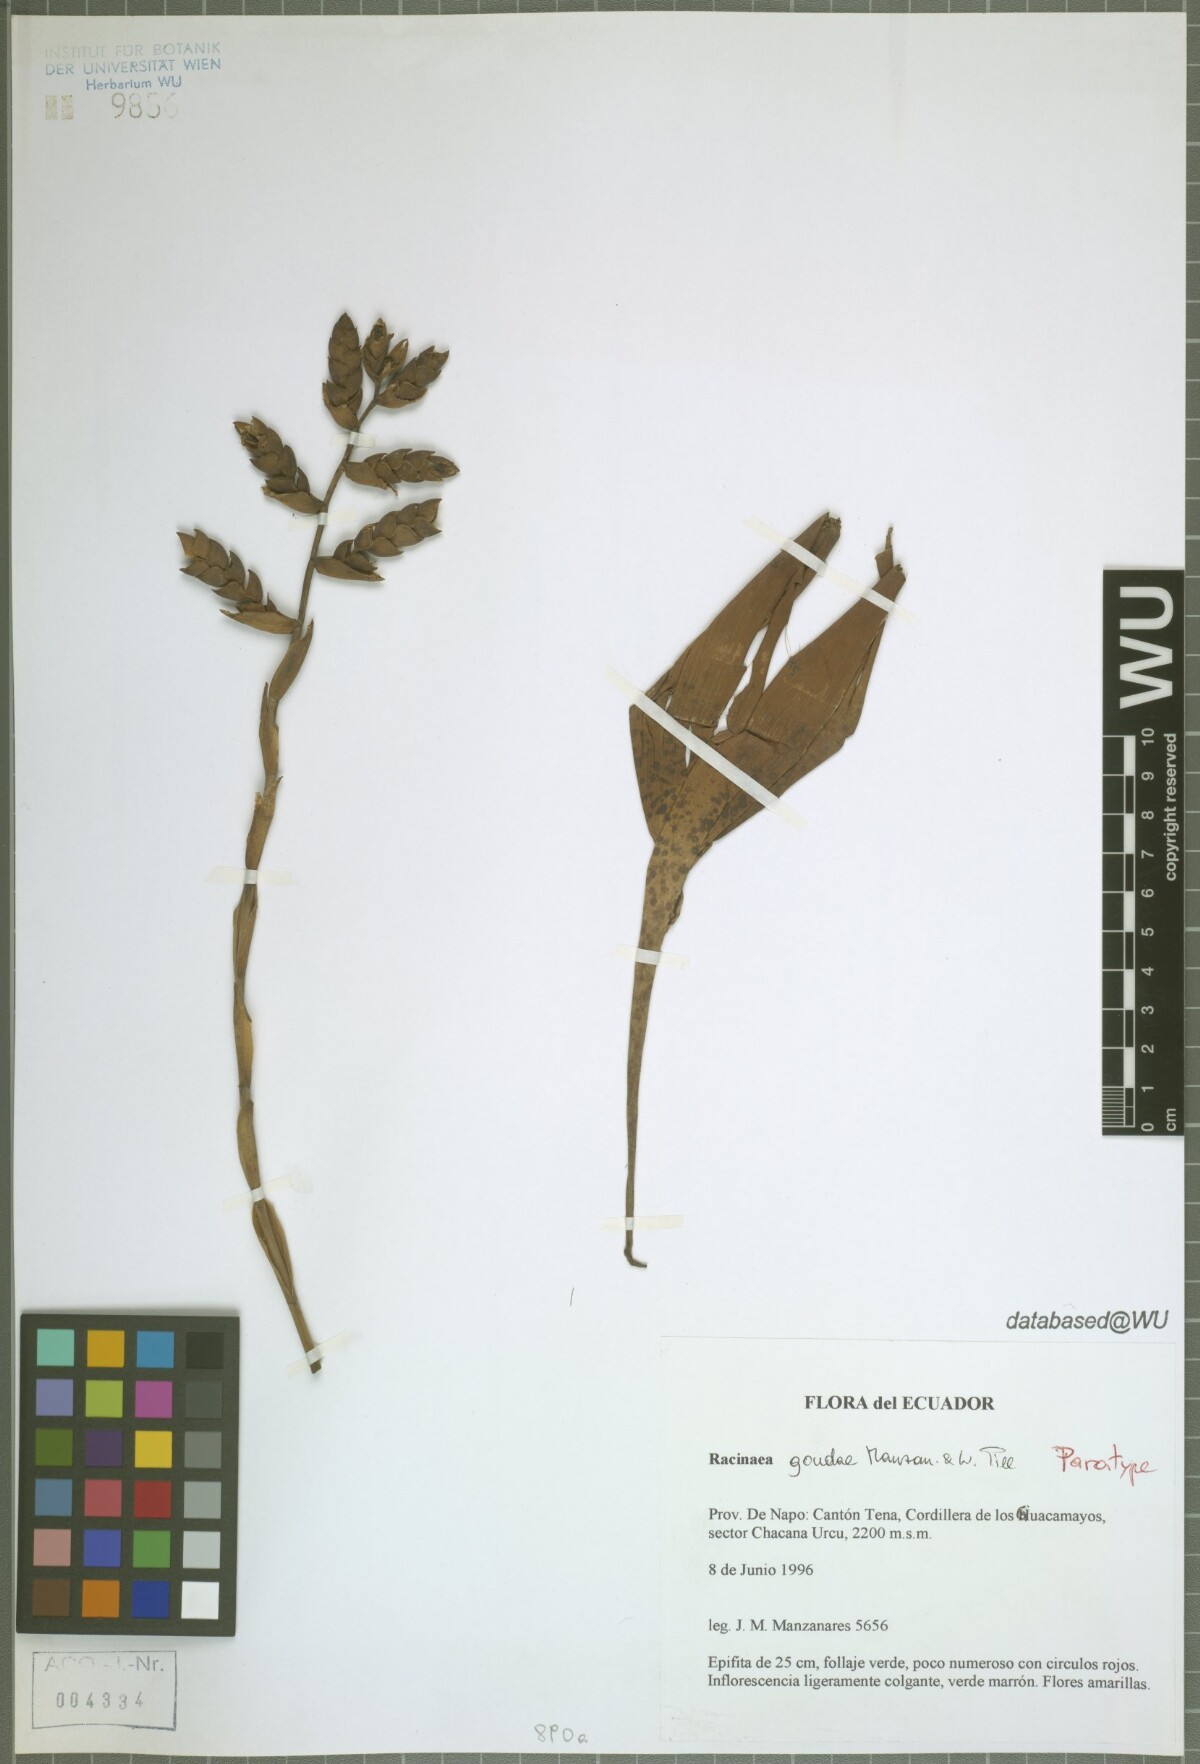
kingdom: Plantae
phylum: Tracheophyta
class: Liliopsida
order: Poales
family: Bromeliaceae
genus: Racinaea
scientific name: Racinaea goudae
